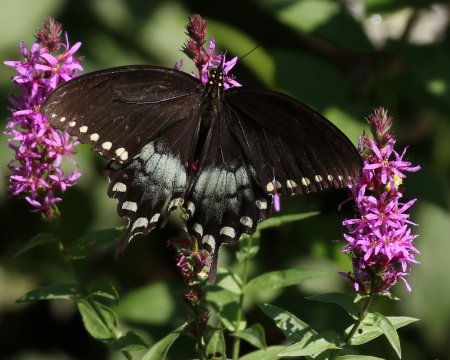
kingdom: Animalia
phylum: Arthropoda
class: Insecta
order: Lepidoptera
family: Papilionidae
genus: Pterourus
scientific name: Pterourus troilus
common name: Spicebush Swallowtail
